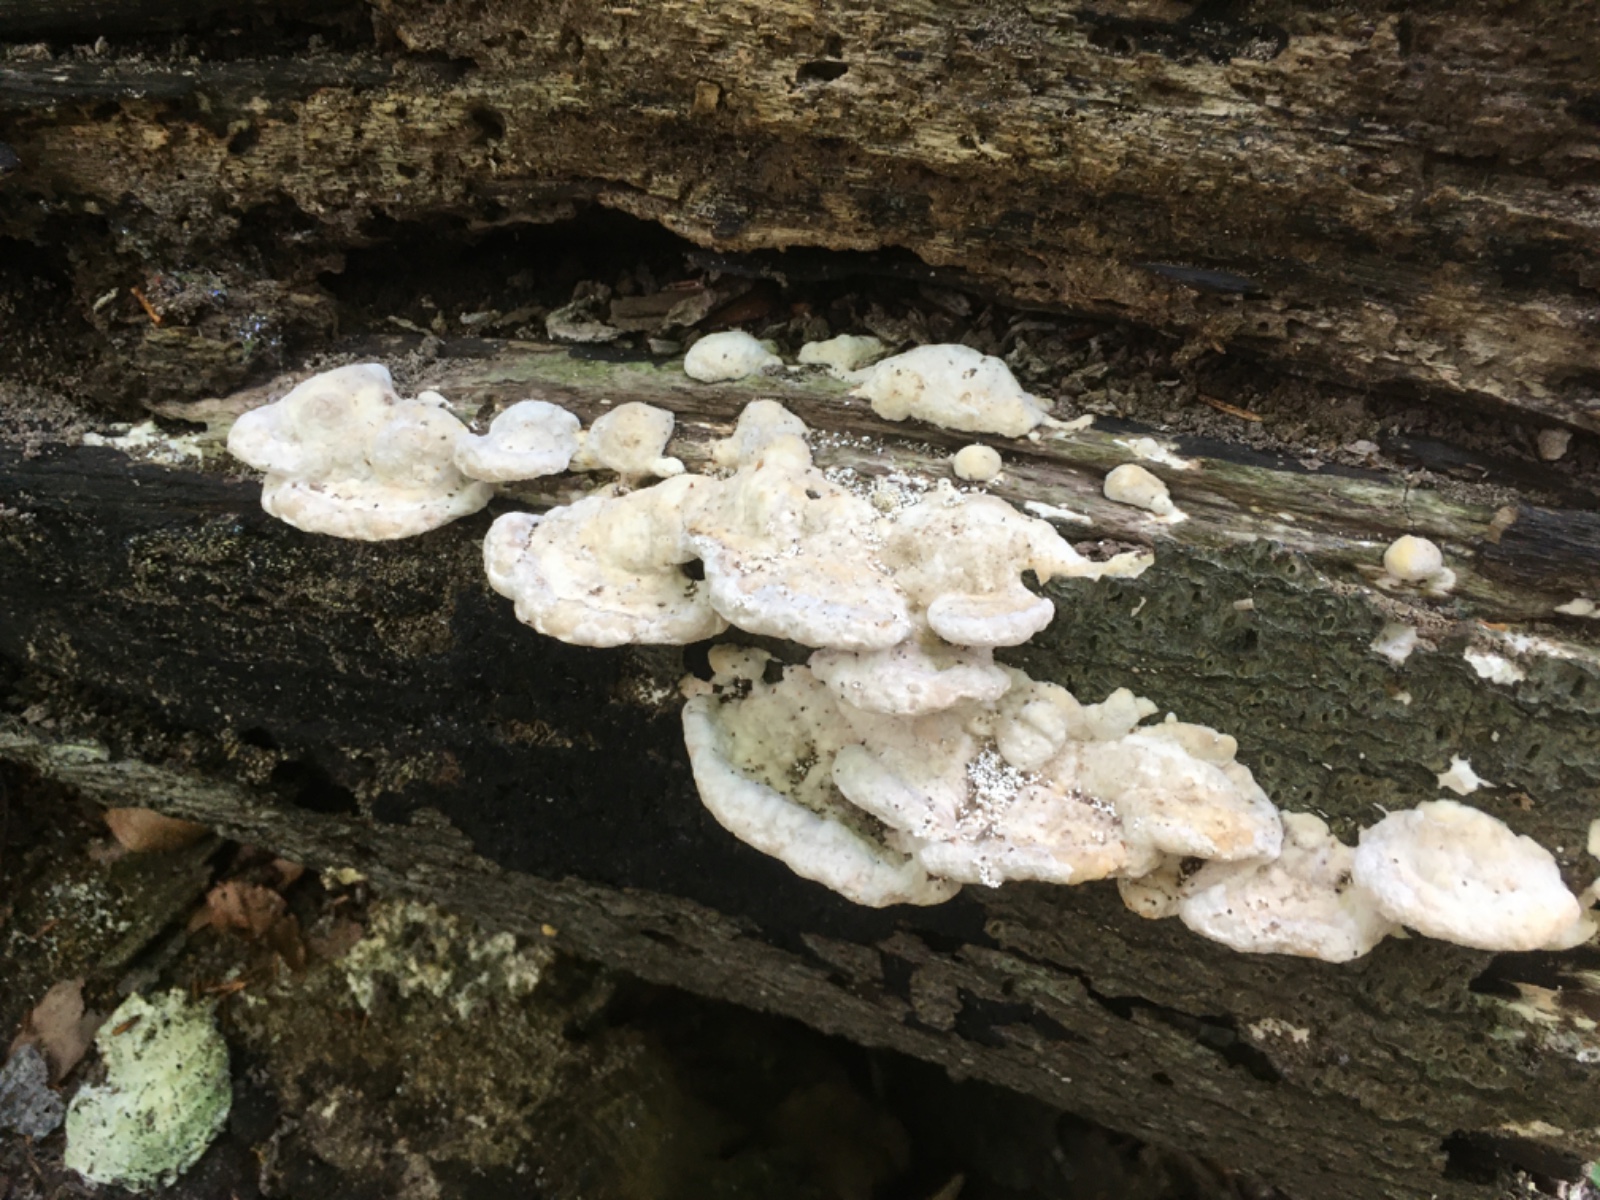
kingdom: Fungi
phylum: Basidiomycota
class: Agaricomycetes
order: Polyporales
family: Polyporaceae
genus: Trametes
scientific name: Trametes gibbosa
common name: puklet læderporesvamp
